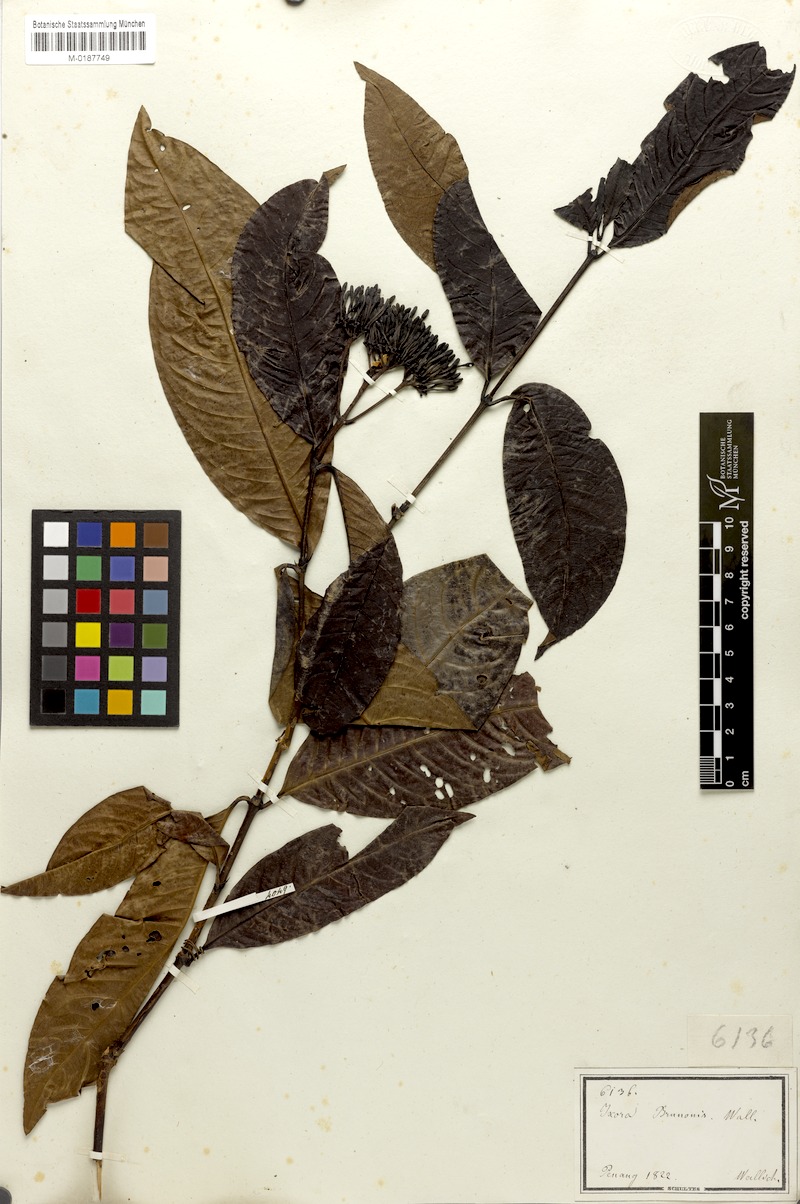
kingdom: Plantae
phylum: Tracheophyta
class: Magnoliopsida
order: Gentianales
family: Rubiaceae
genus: Ixora
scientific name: Ixora brunonis
